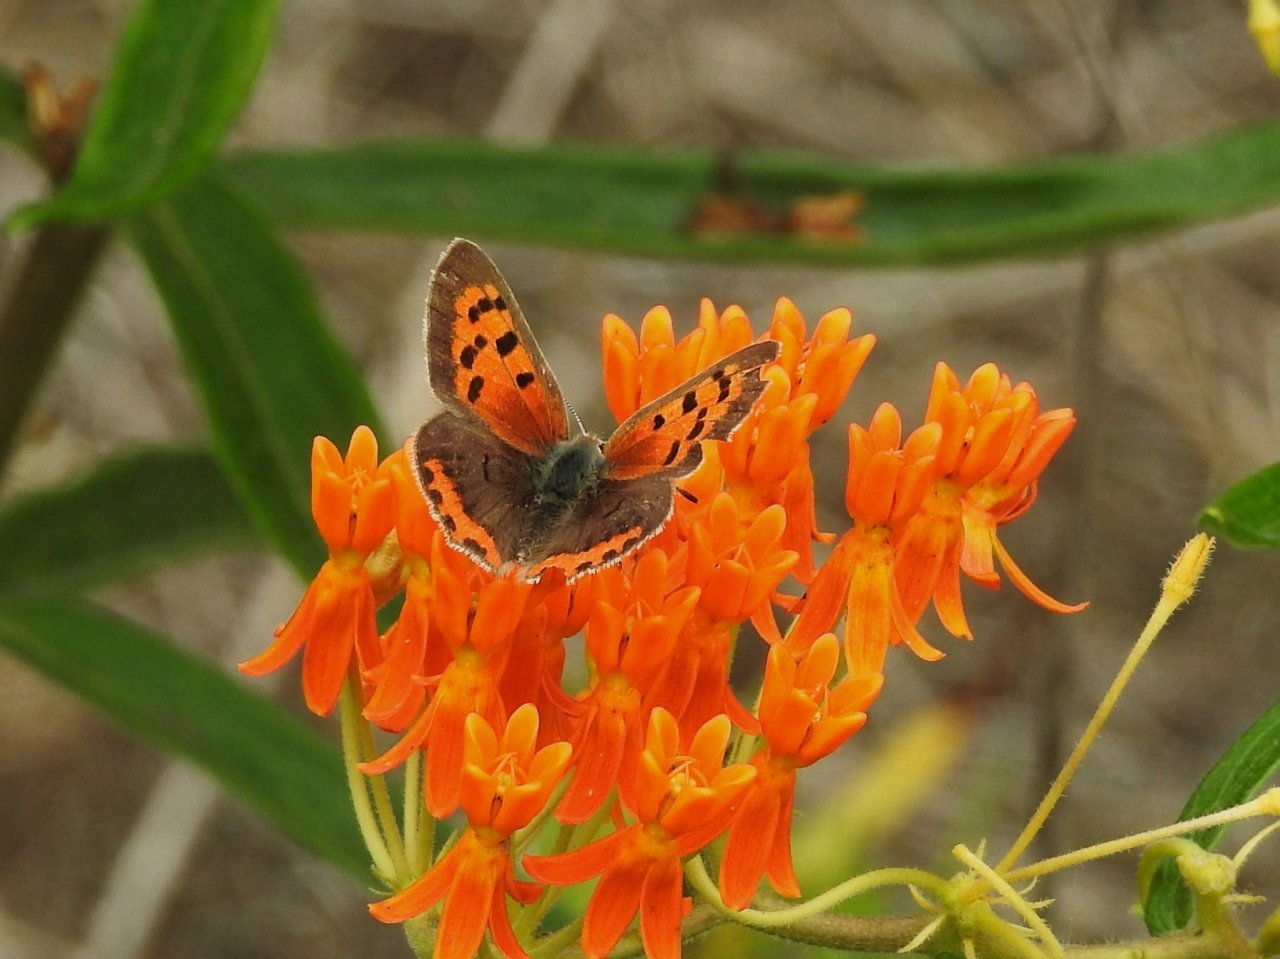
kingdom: Animalia
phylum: Arthropoda
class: Insecta
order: Lepidoptera
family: Lycaenidae
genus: Lycaena
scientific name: Lycaena phlaeas
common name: American Copper
